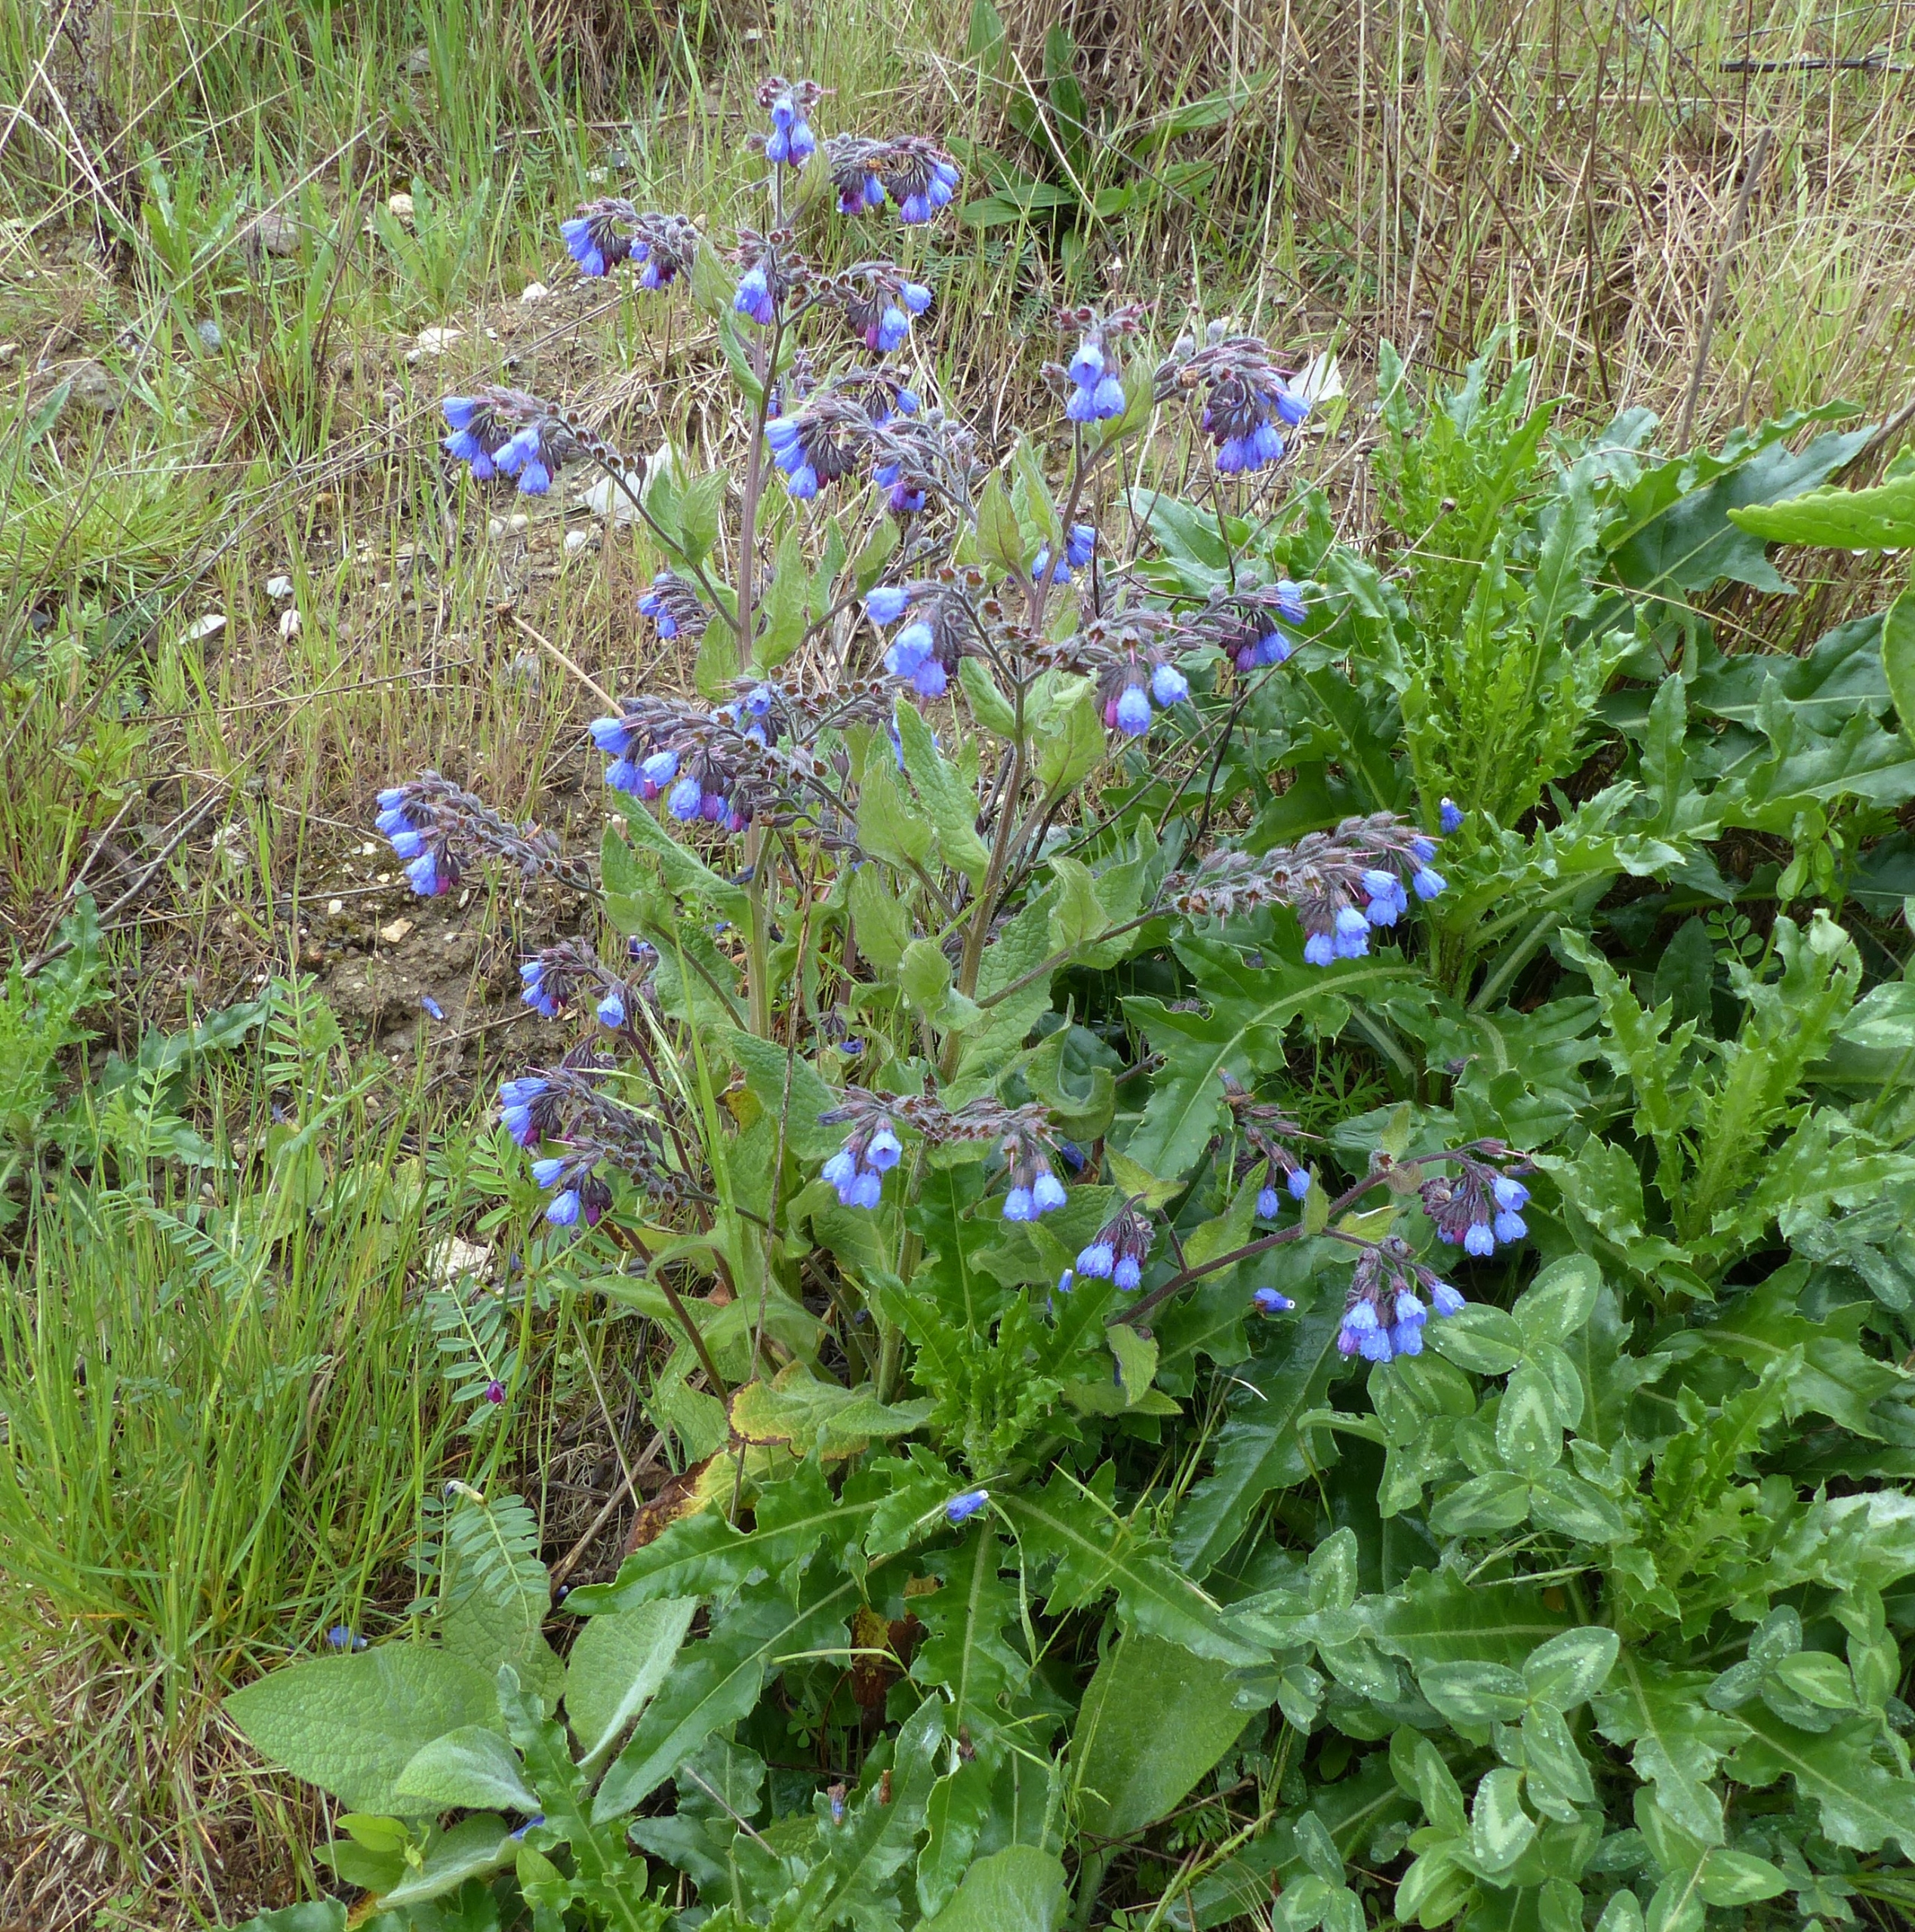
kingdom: Plantae
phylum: Tracheophyta
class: Magnoliopsida
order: Boraginales
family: Boraginaceae
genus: Symphytum
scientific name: Symphytum caucasicum
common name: Kaukasisk kulsukker
